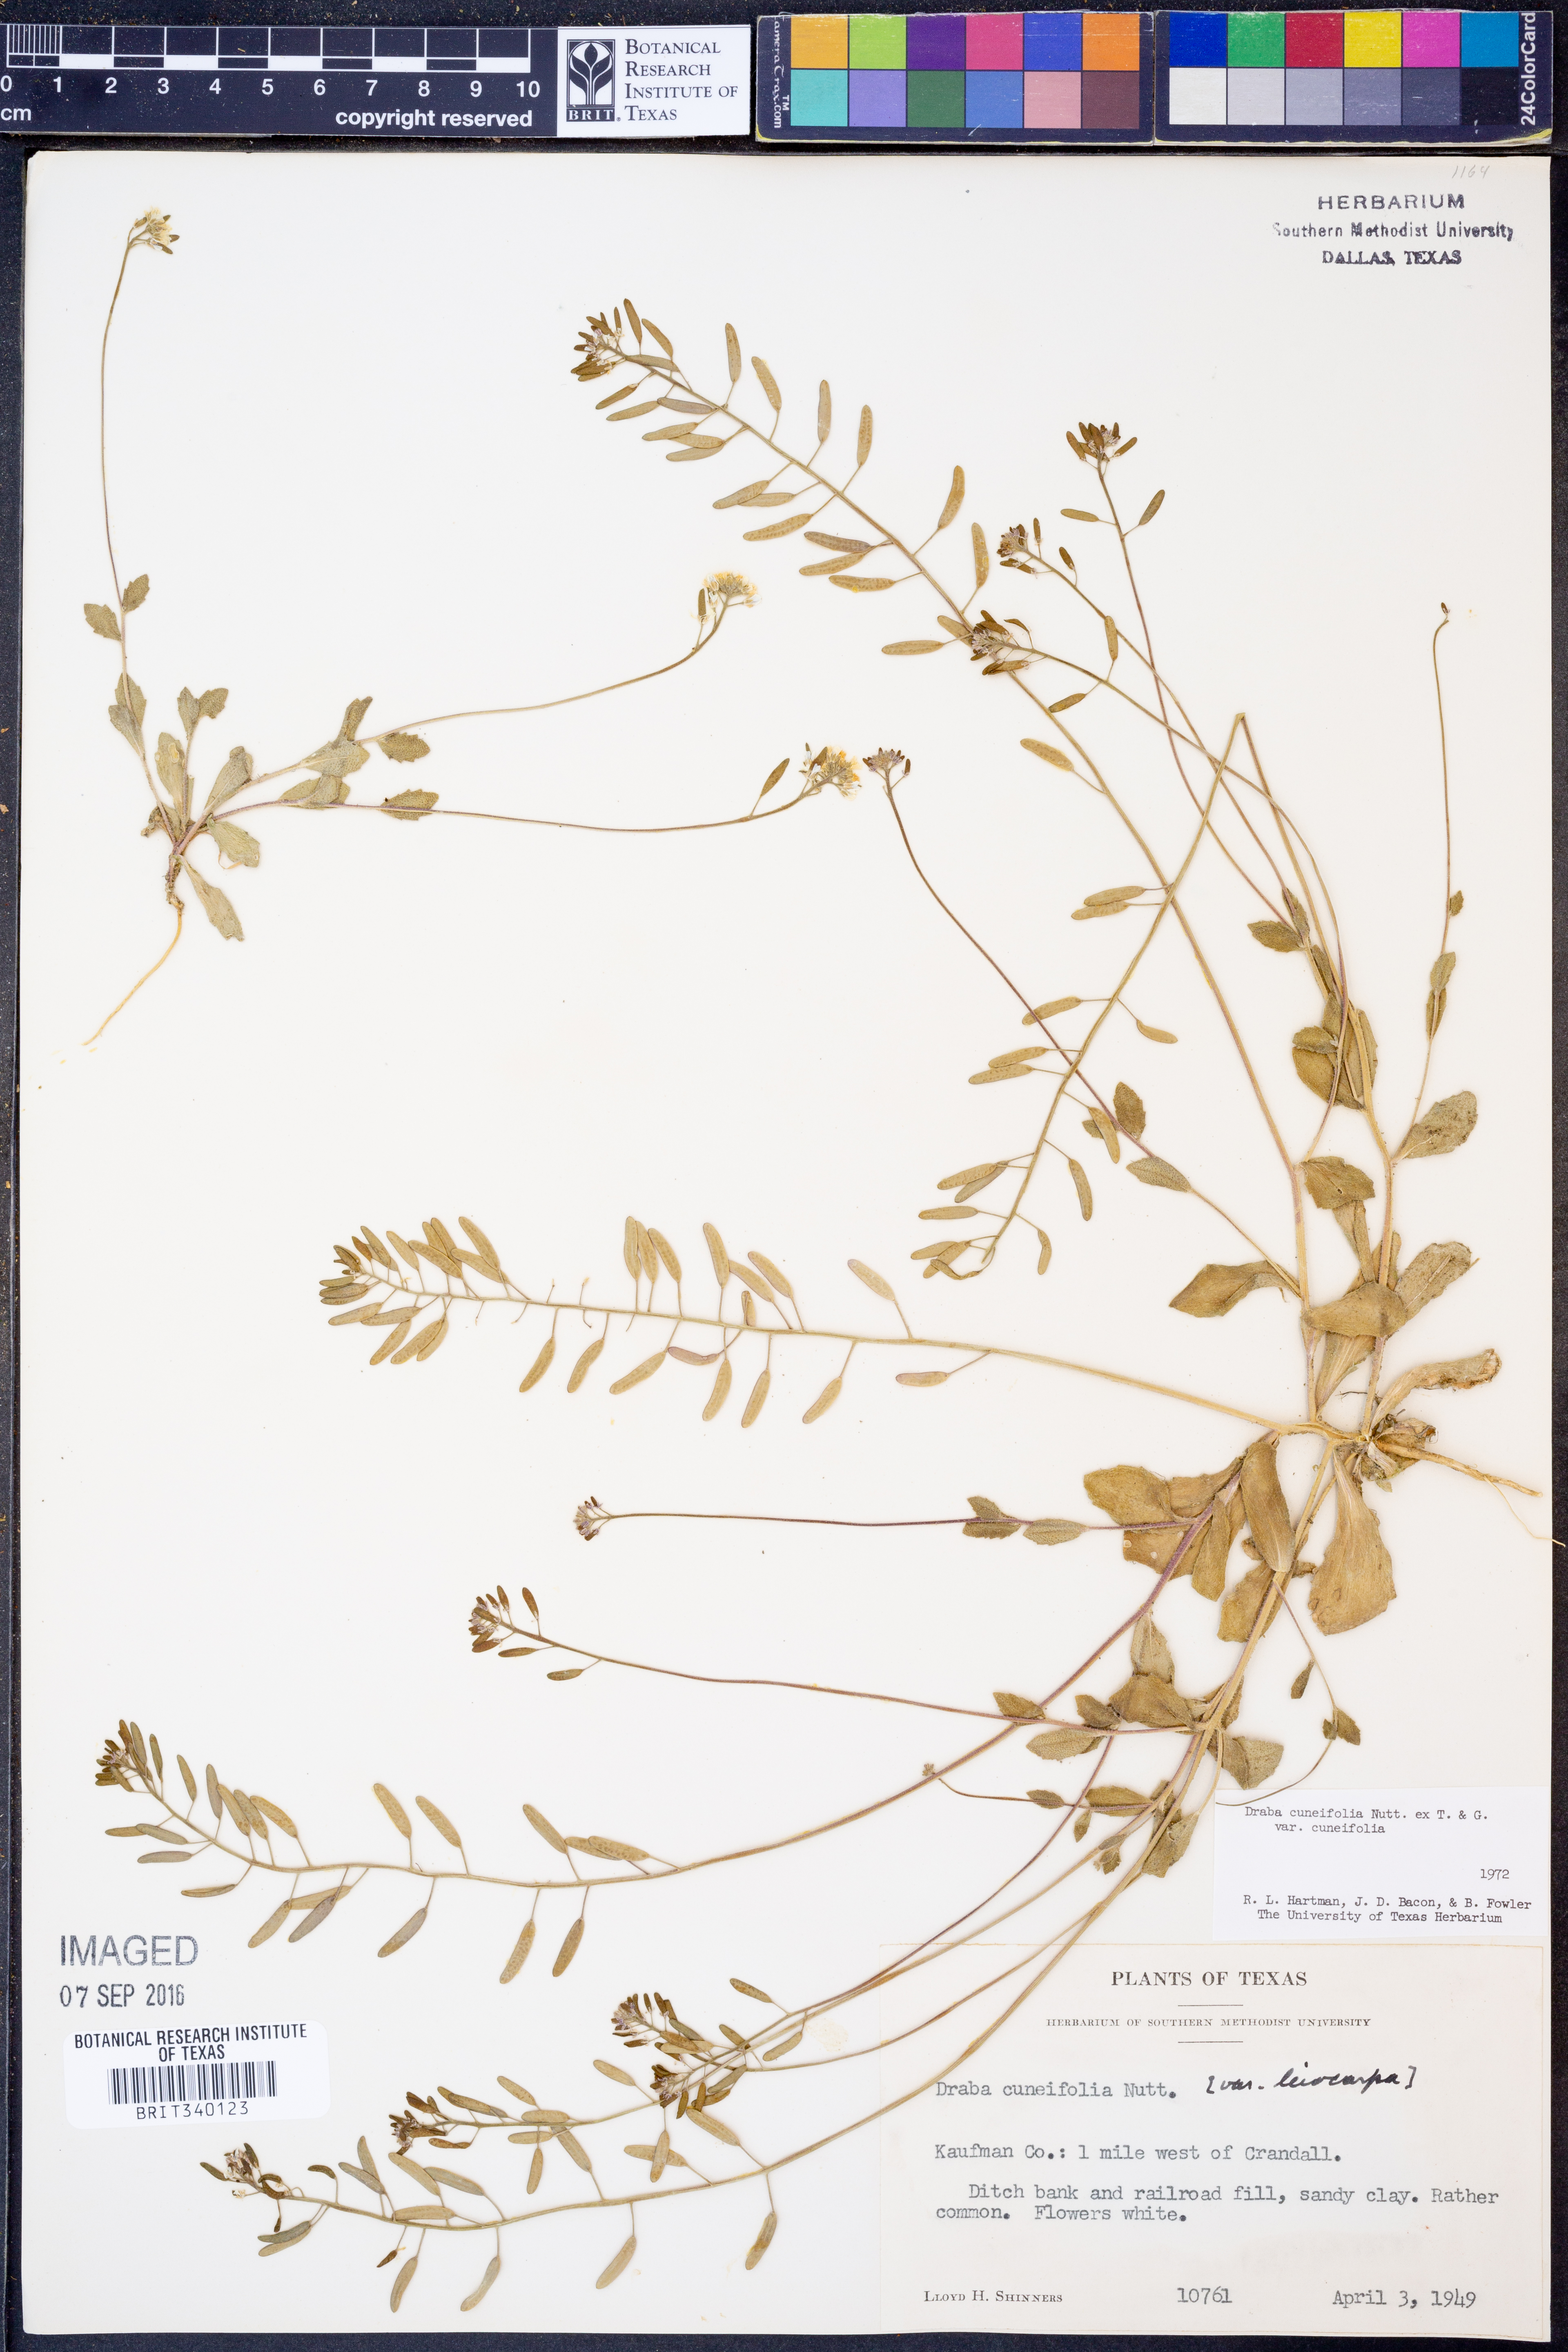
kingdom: Plantae
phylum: Tracheophyta
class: Magnoliopsida
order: Brassicales
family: Brassicaceae
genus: Tomostima
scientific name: Tomostima cuneifolia
